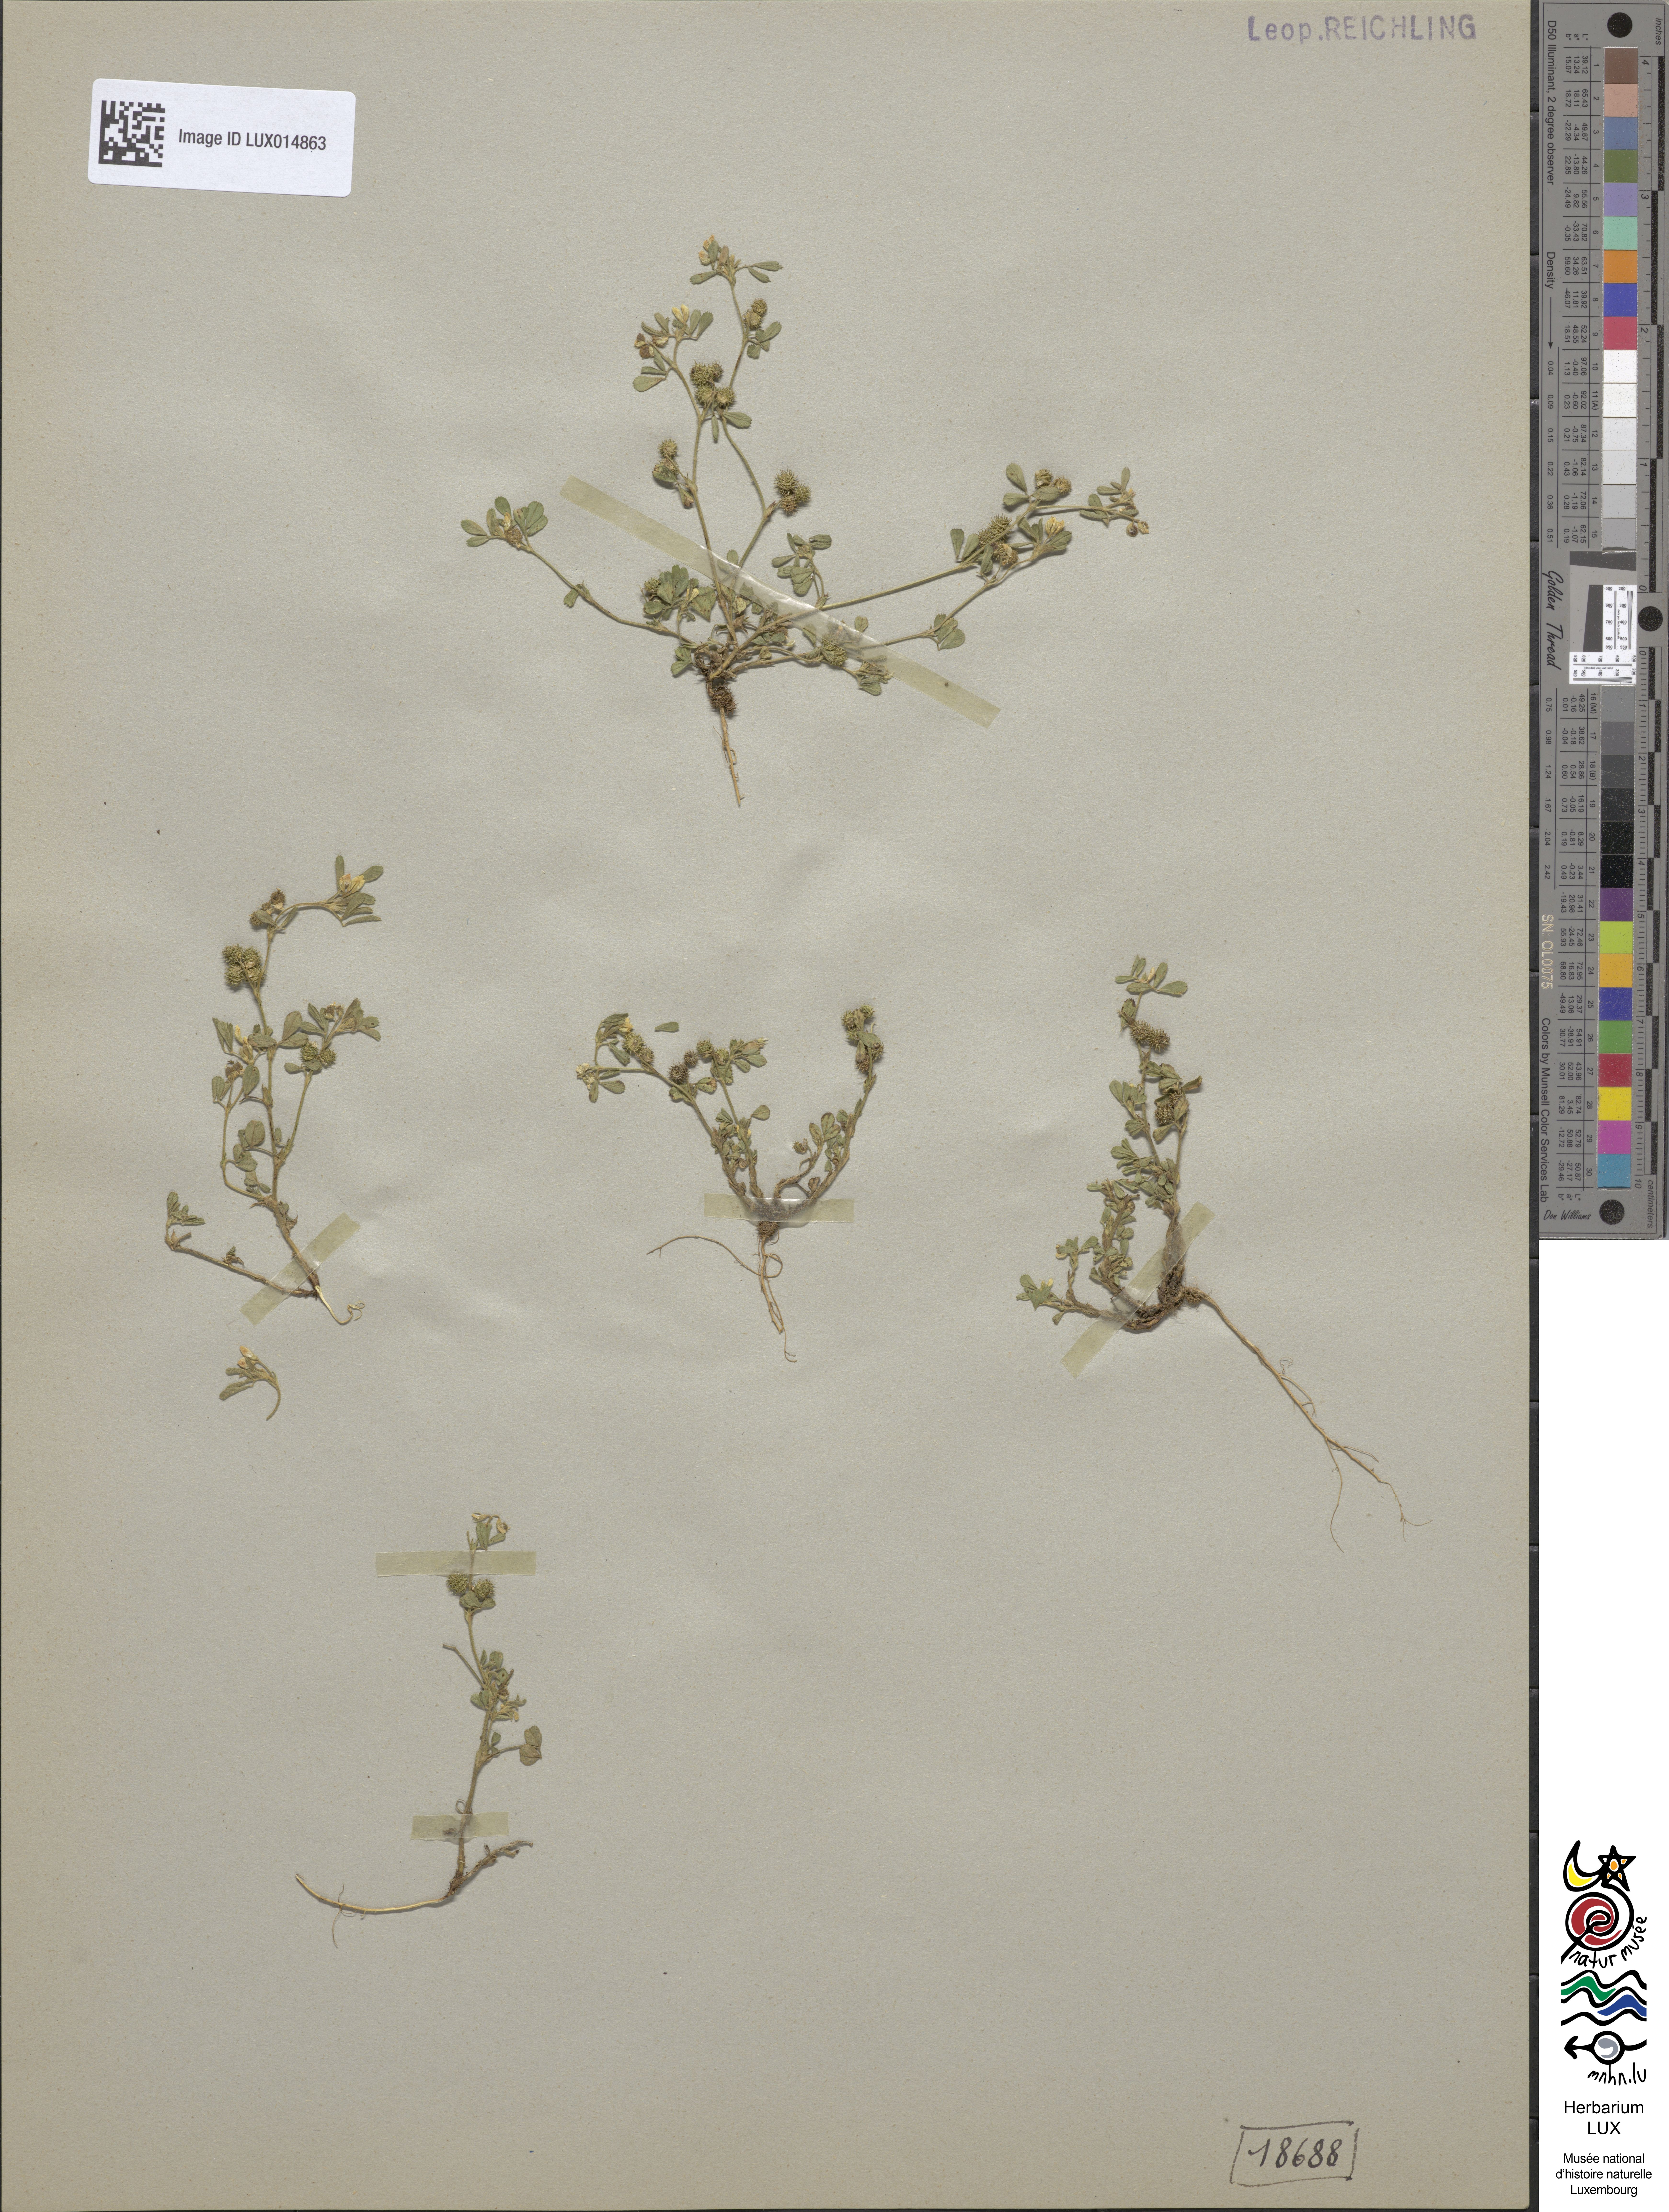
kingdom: Plantae
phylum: Tracheophyta
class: Magnoliopsida
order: Fabales
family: Fabaceae
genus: Medicago
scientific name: Medicago minima
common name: Little bur-clover
